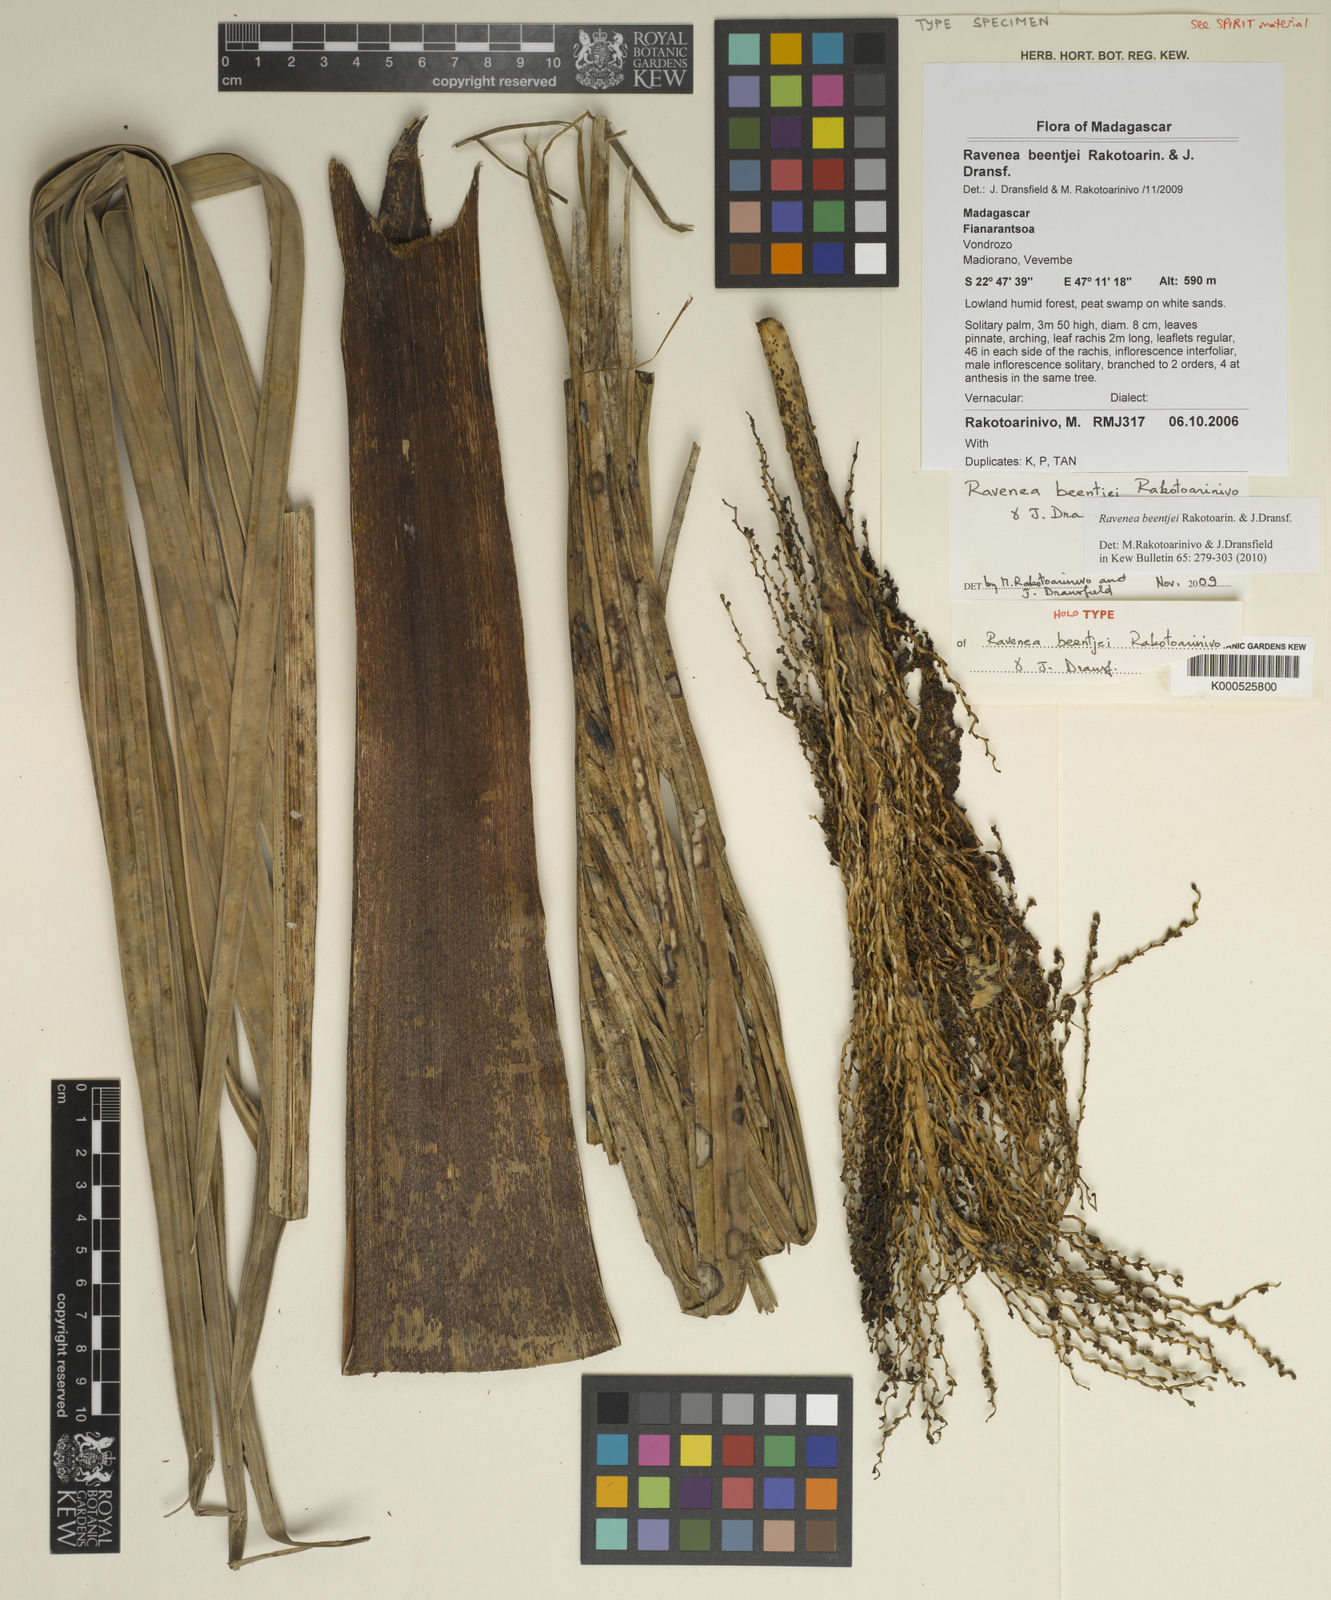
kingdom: Plantae
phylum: Tracheophyta
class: Liliopsida
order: Arecales
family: Arecaceae
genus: Ravenea
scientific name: Ravenea beentjei
